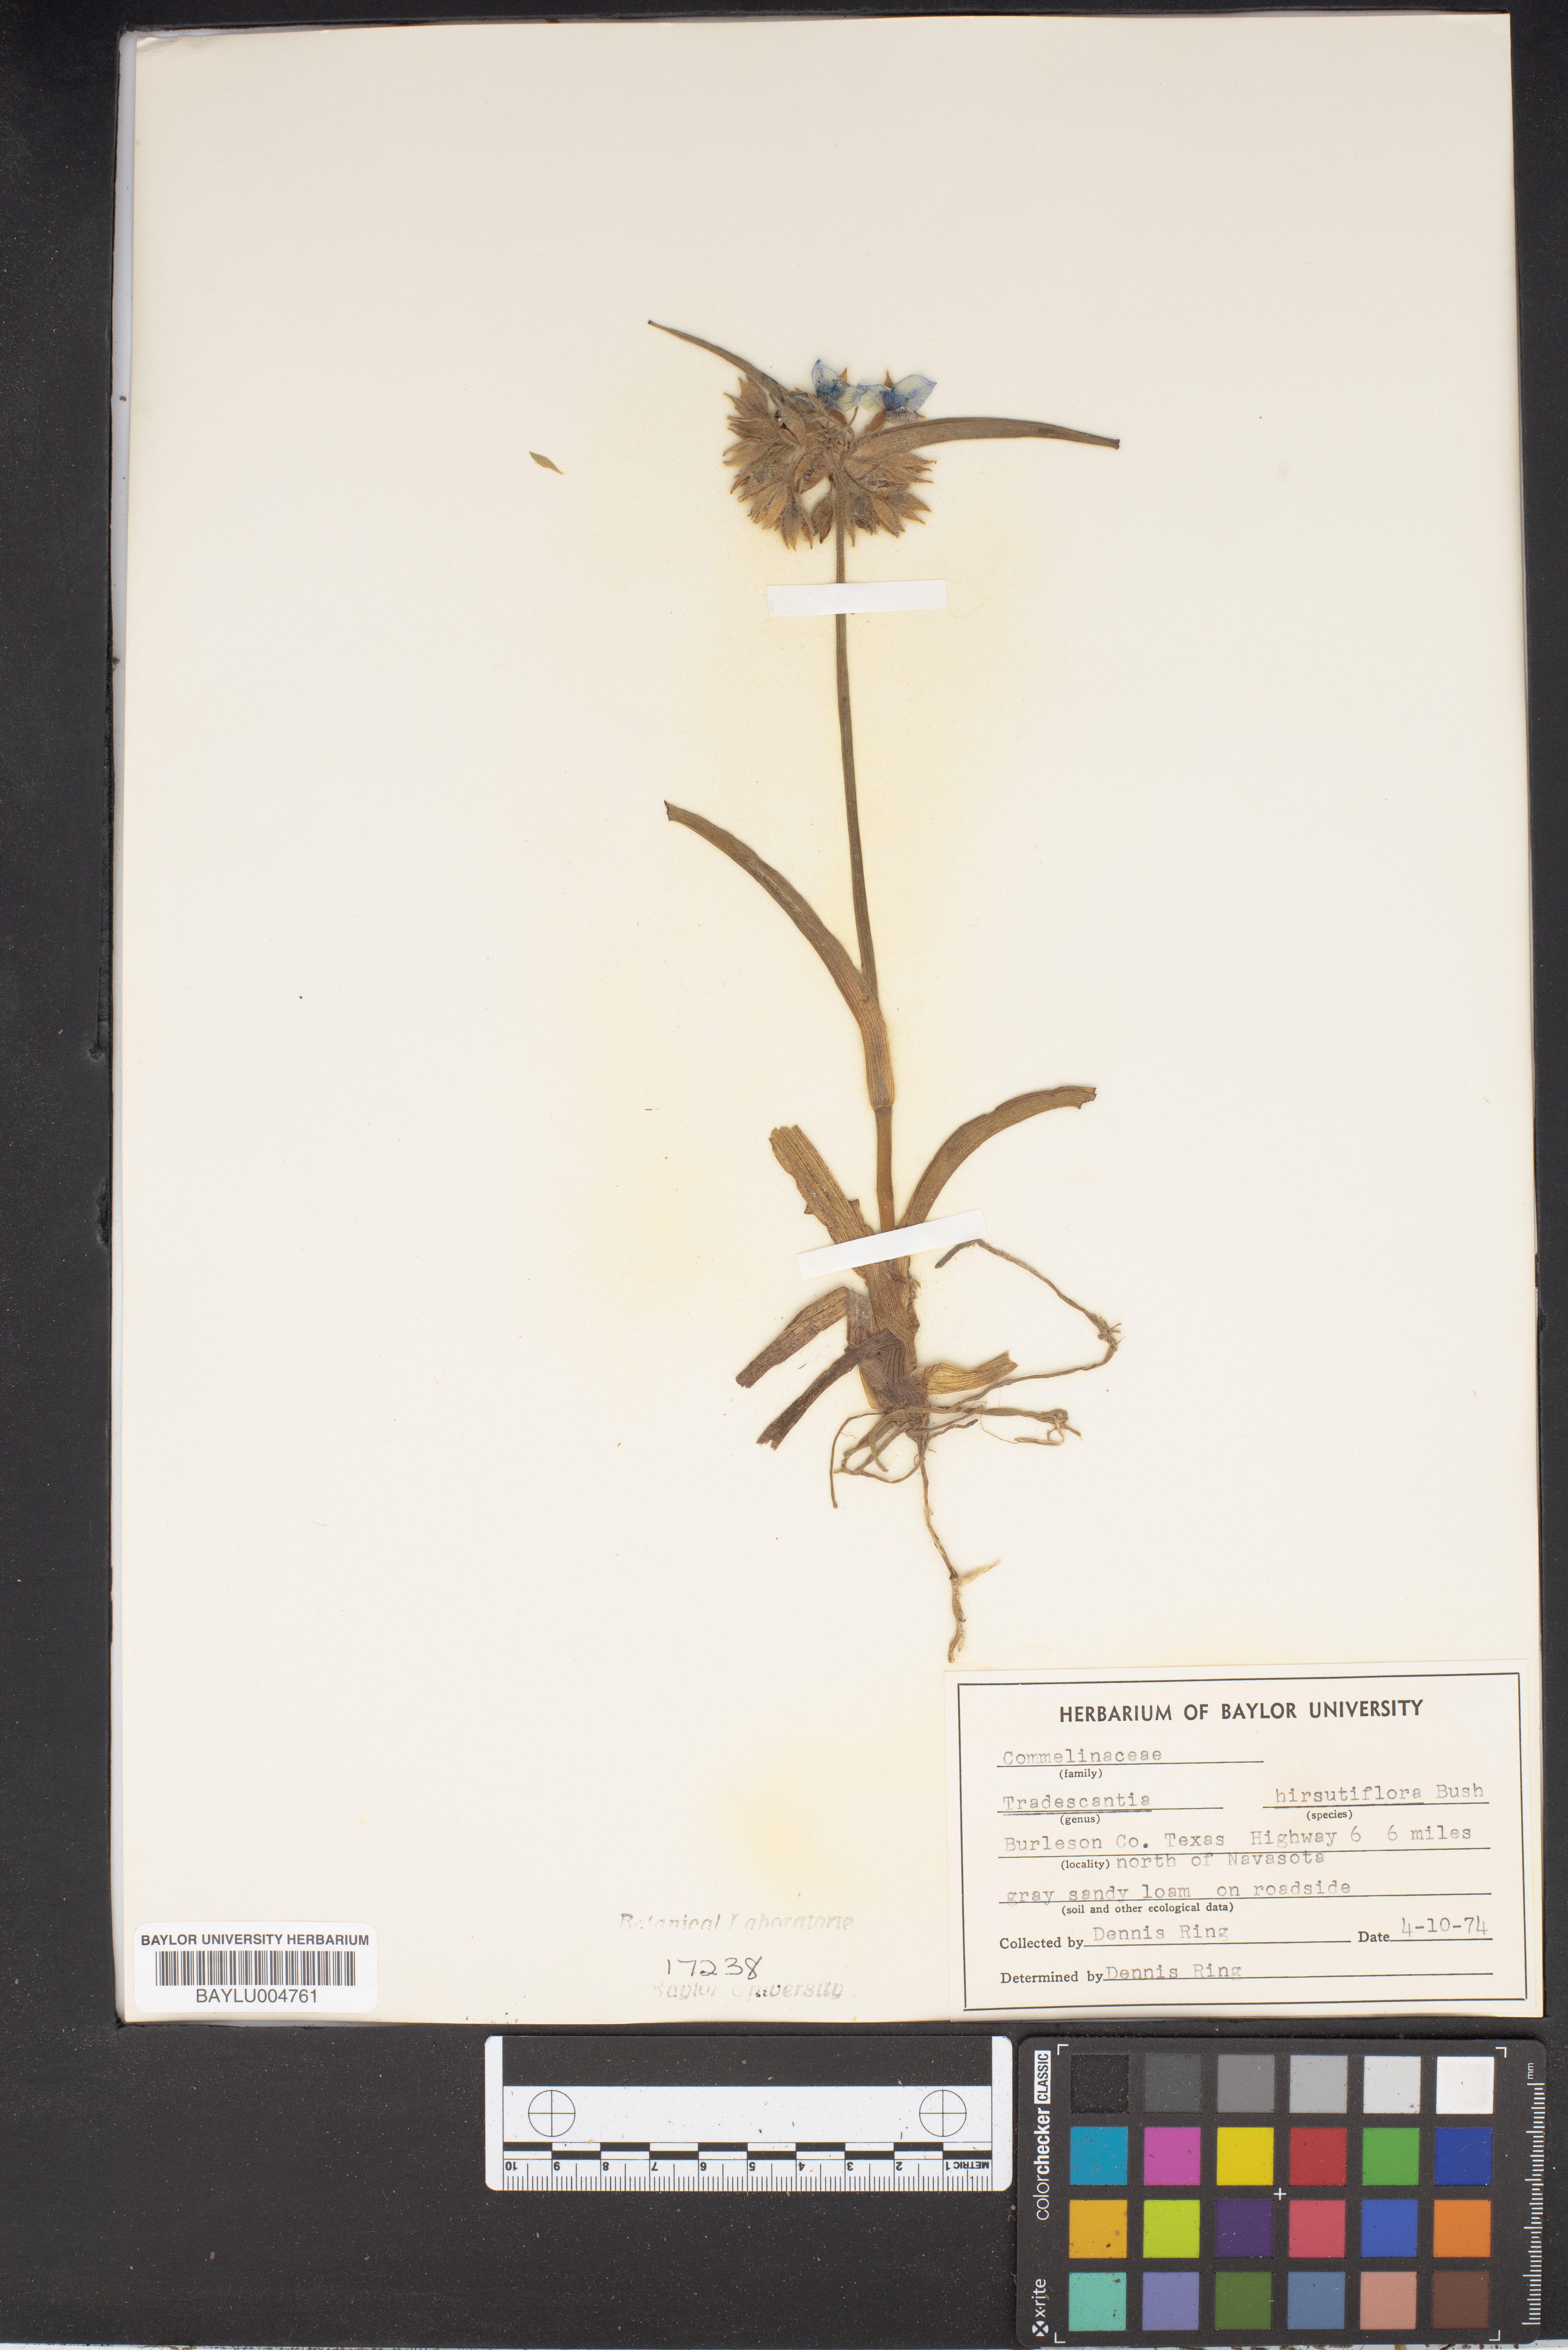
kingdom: Plantae
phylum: Tracheophyta
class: Liliopsida
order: Commelinales
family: Commelinaceae
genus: Tradescantia
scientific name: Tradescantia hirsutiflora
